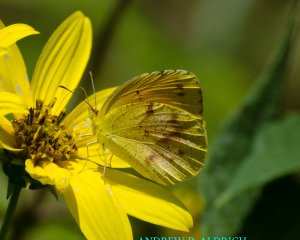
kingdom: Animalia
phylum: Arthropoda
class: Insecta
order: Lepidoptera
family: Pieridae
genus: Abaeis
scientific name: Abaeis nicippe
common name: Sleepy Orange
